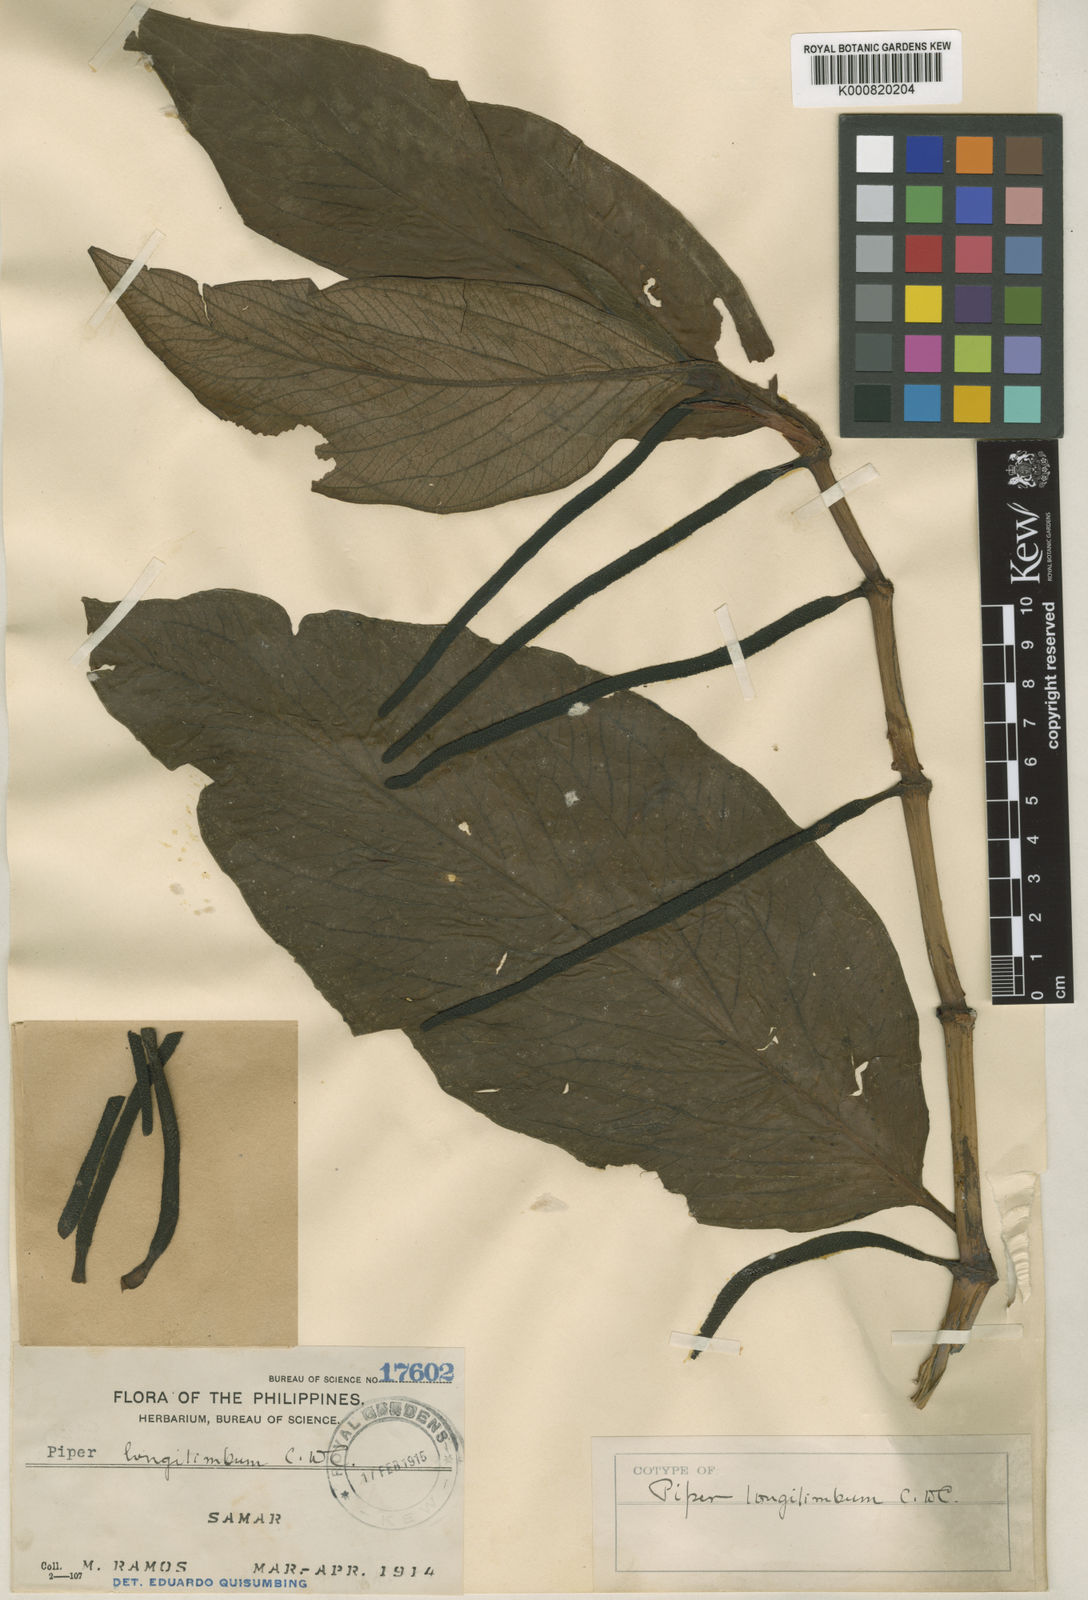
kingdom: Plantae
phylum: Tracheophyta
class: Magnoliopsida
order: Piperales
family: Piperaceae
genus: Piper
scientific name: Piper celtidiforme
